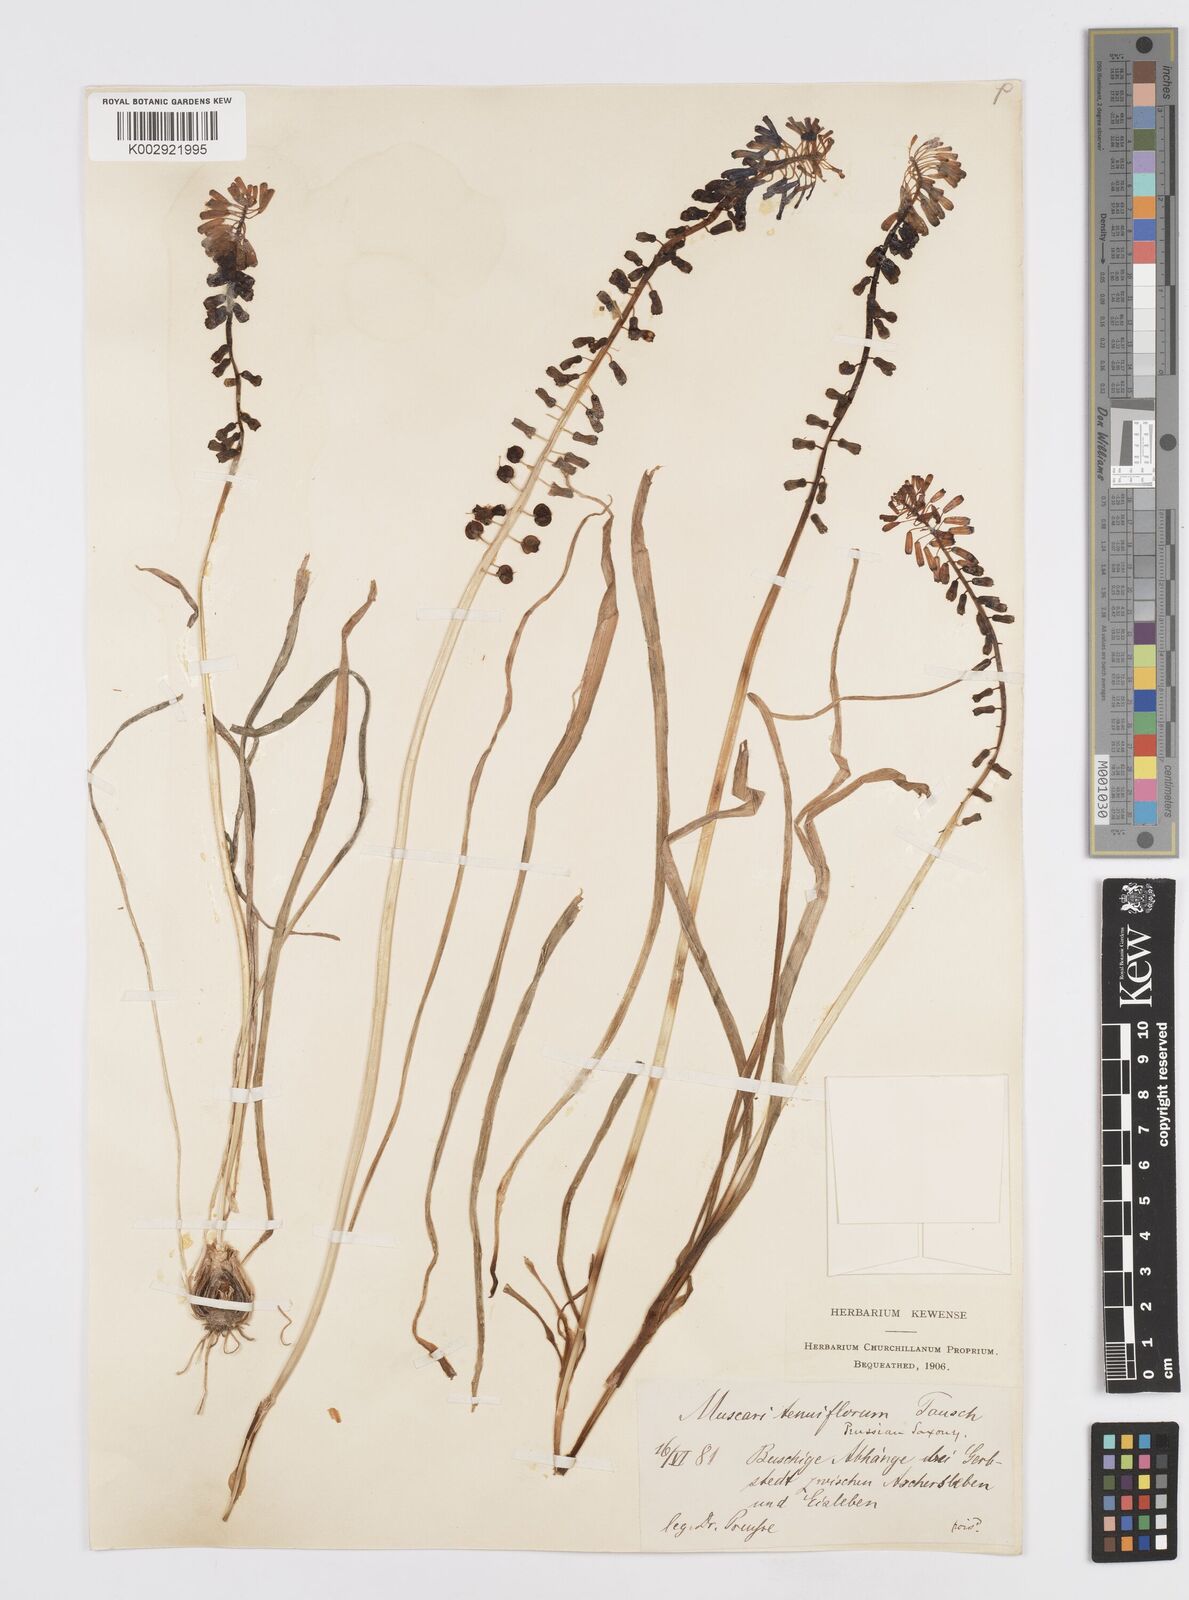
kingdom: Plantae
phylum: Tracheophyta
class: Liliopsida
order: Asparagales
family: Asparagaceae
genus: Muscari
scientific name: Muscari tenuiflorum
